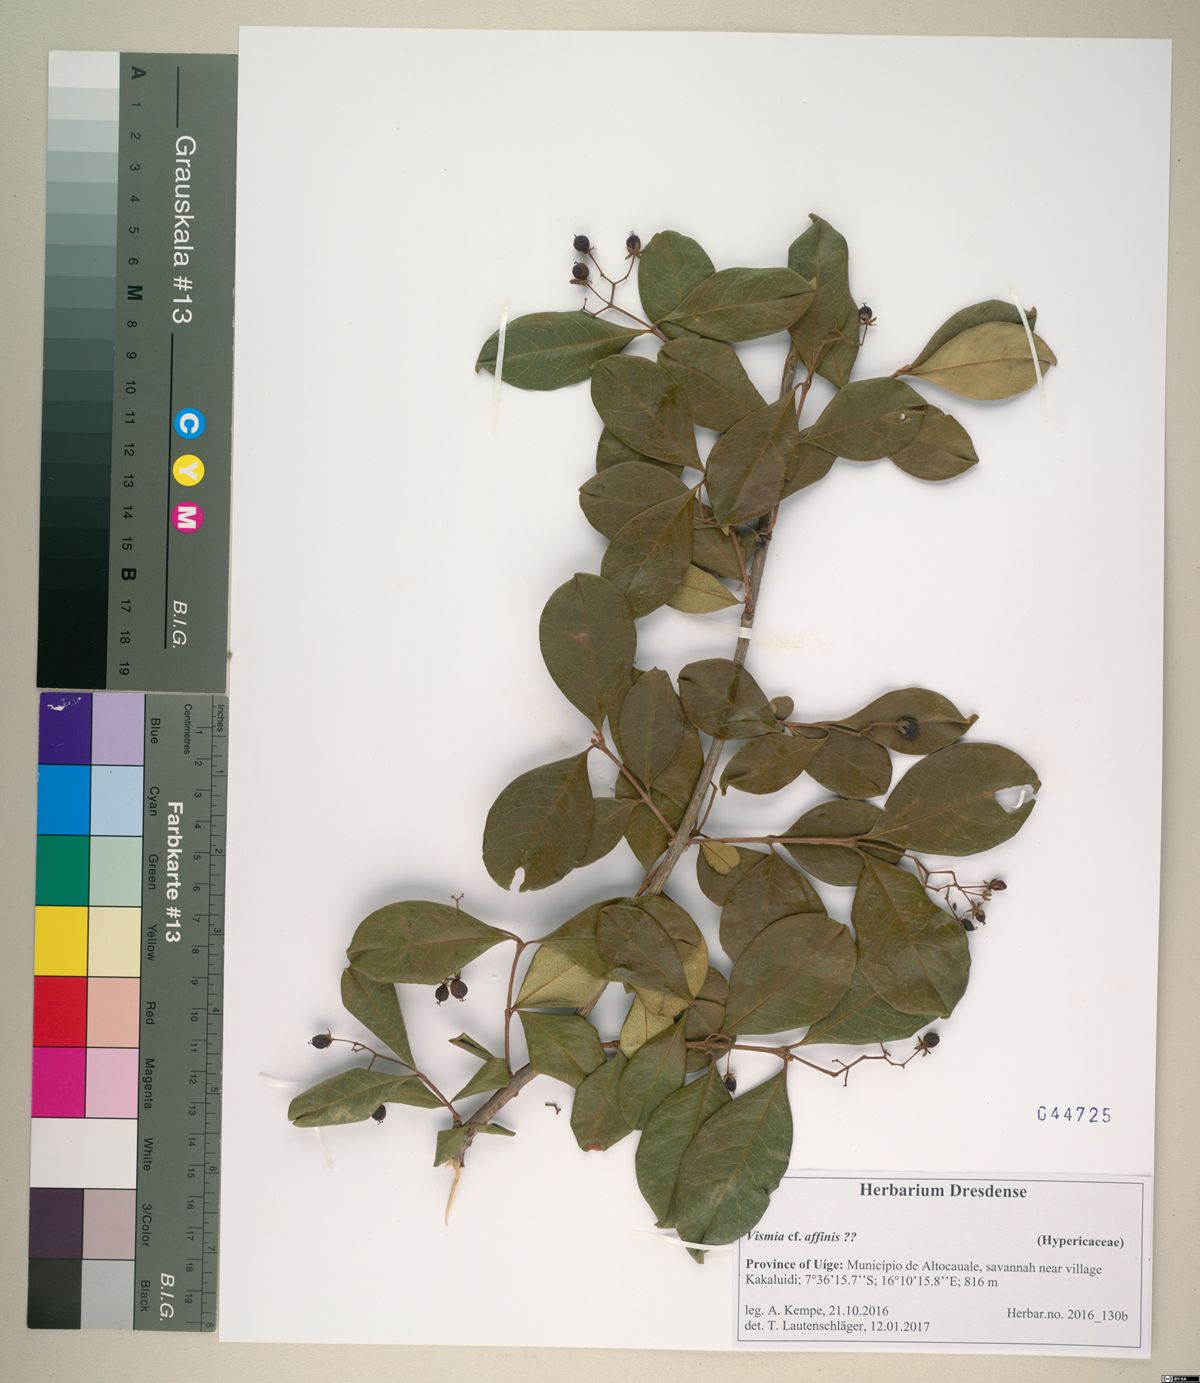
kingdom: Plantae
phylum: Tracheophyta
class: Magnoliopsida
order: Malpighiales
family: Hypericaceae
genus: Psorospermum
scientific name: Psorospermum affine
